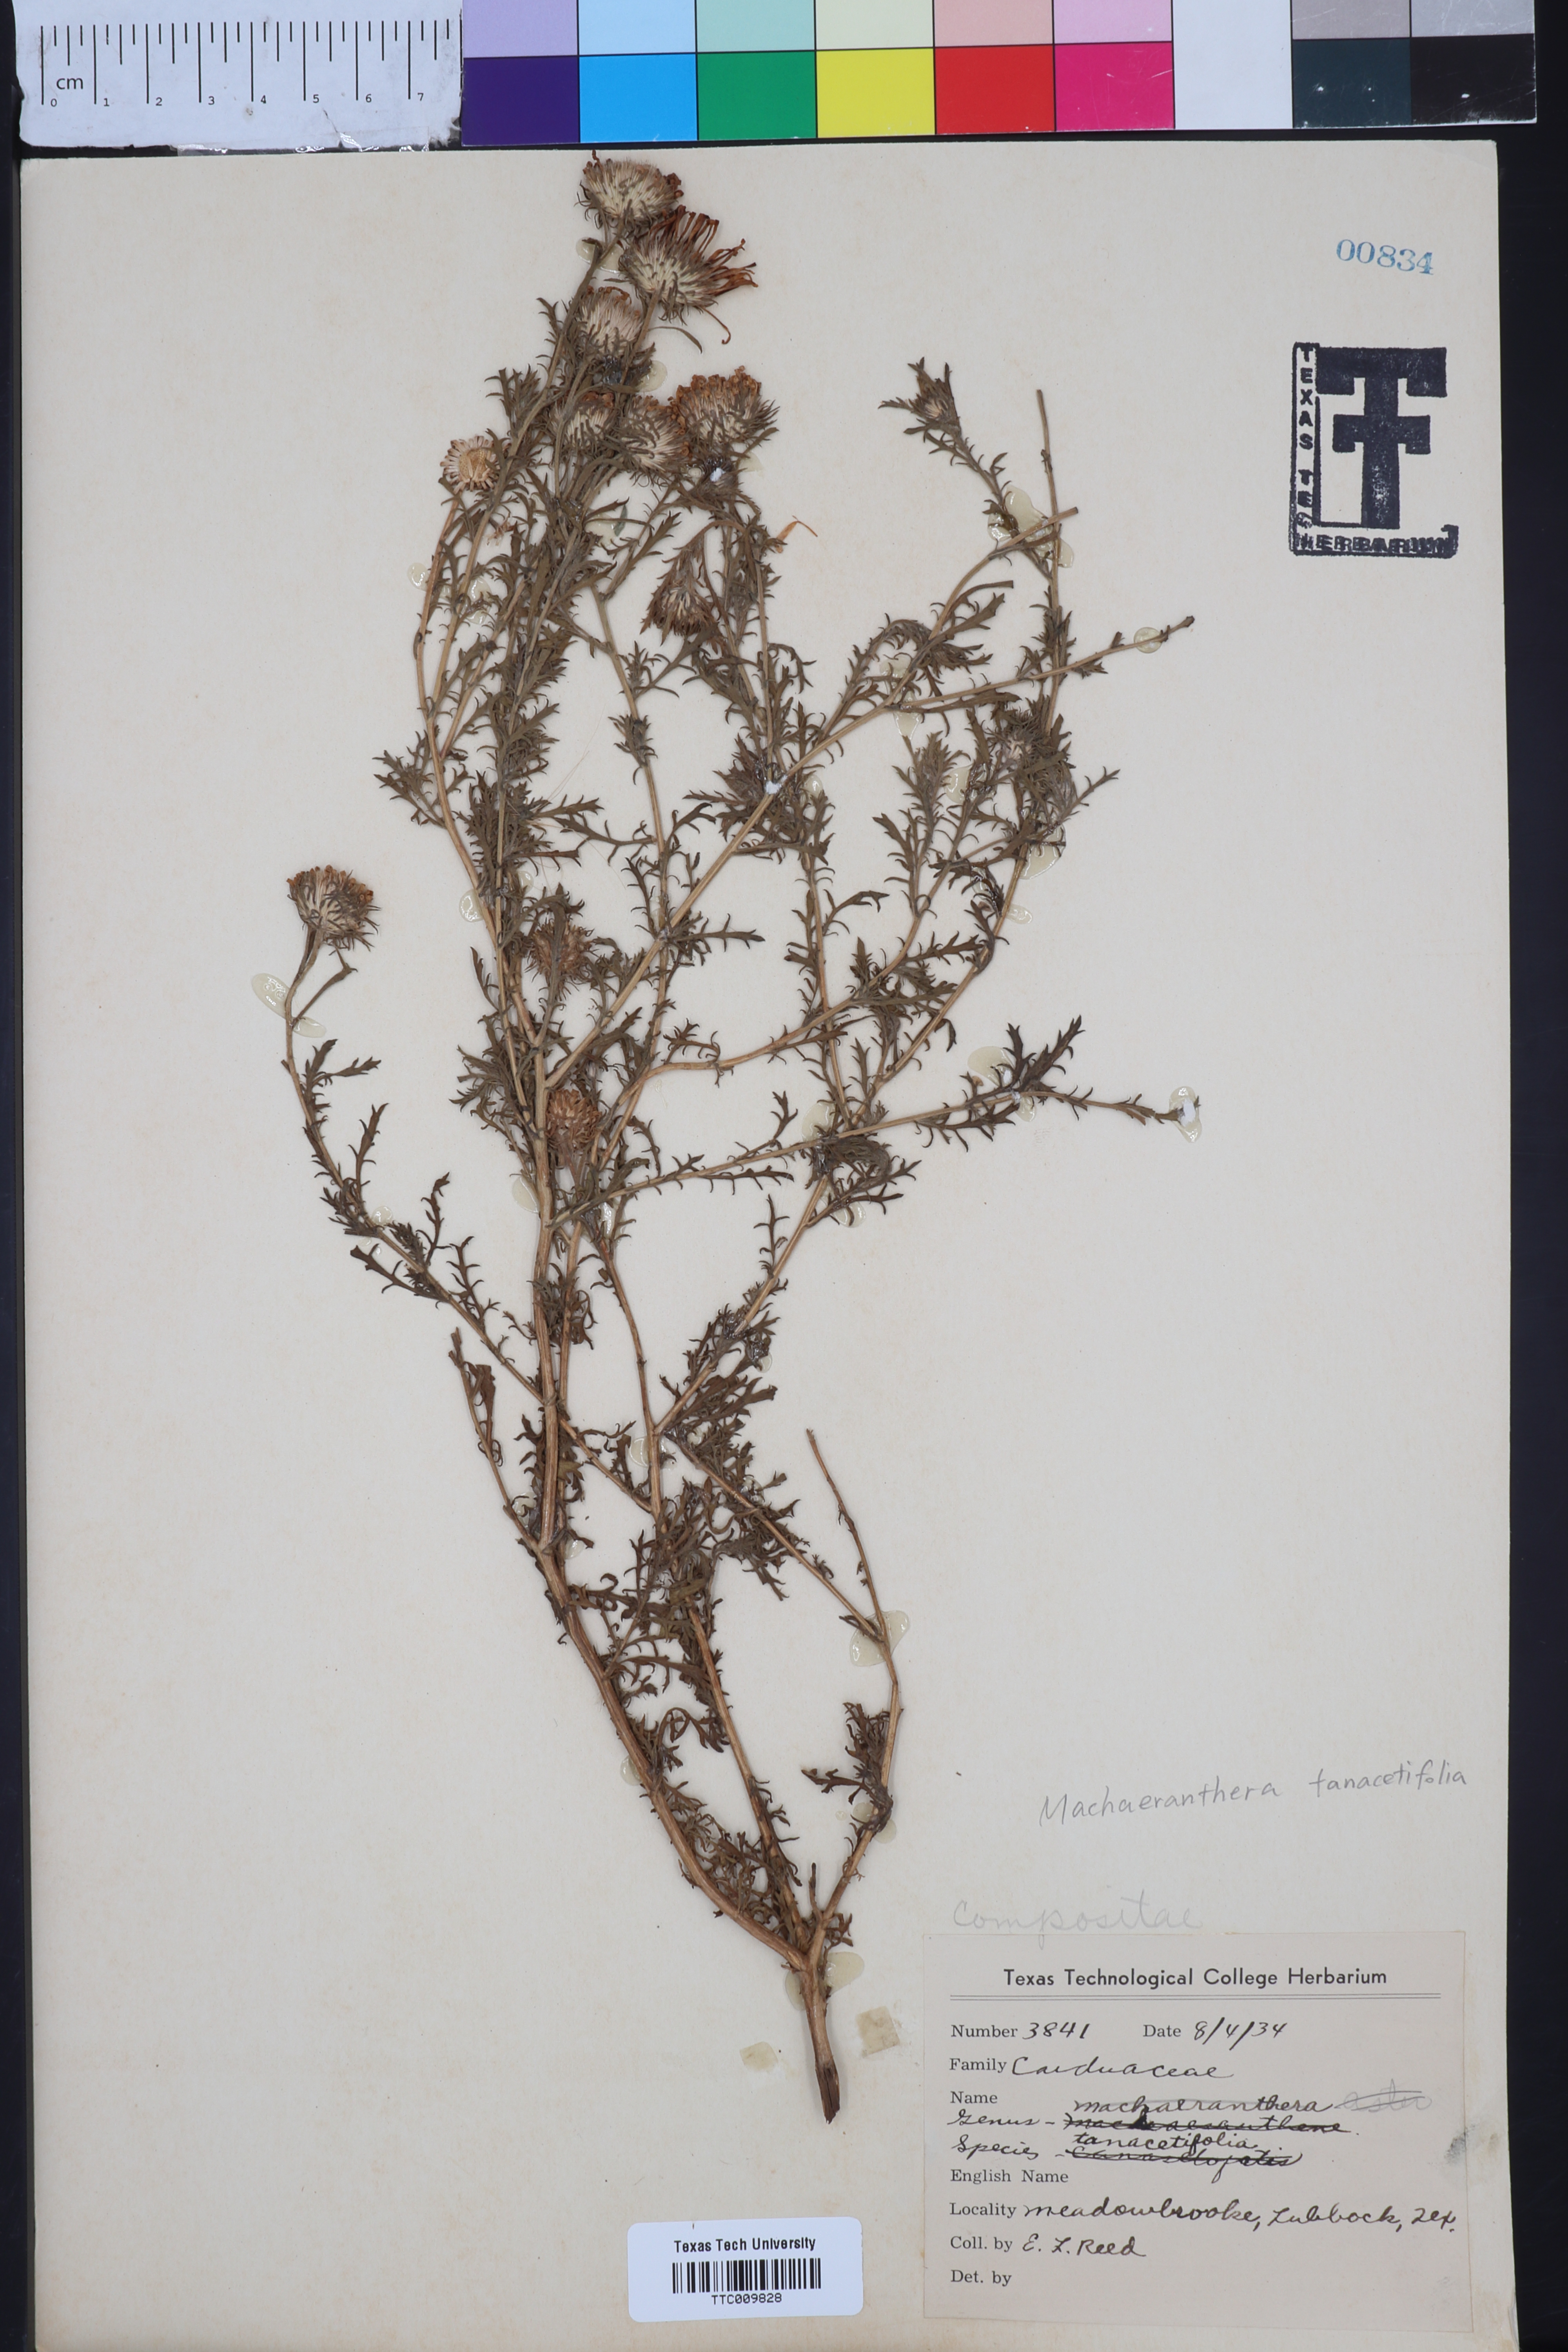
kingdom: Plantae
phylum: Tracheophyta
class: Magnoliopsida
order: Asterales
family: Asteraceae
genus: Machaeranthera
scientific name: Machaeranthera tanacetifolia
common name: Tansy-aster
